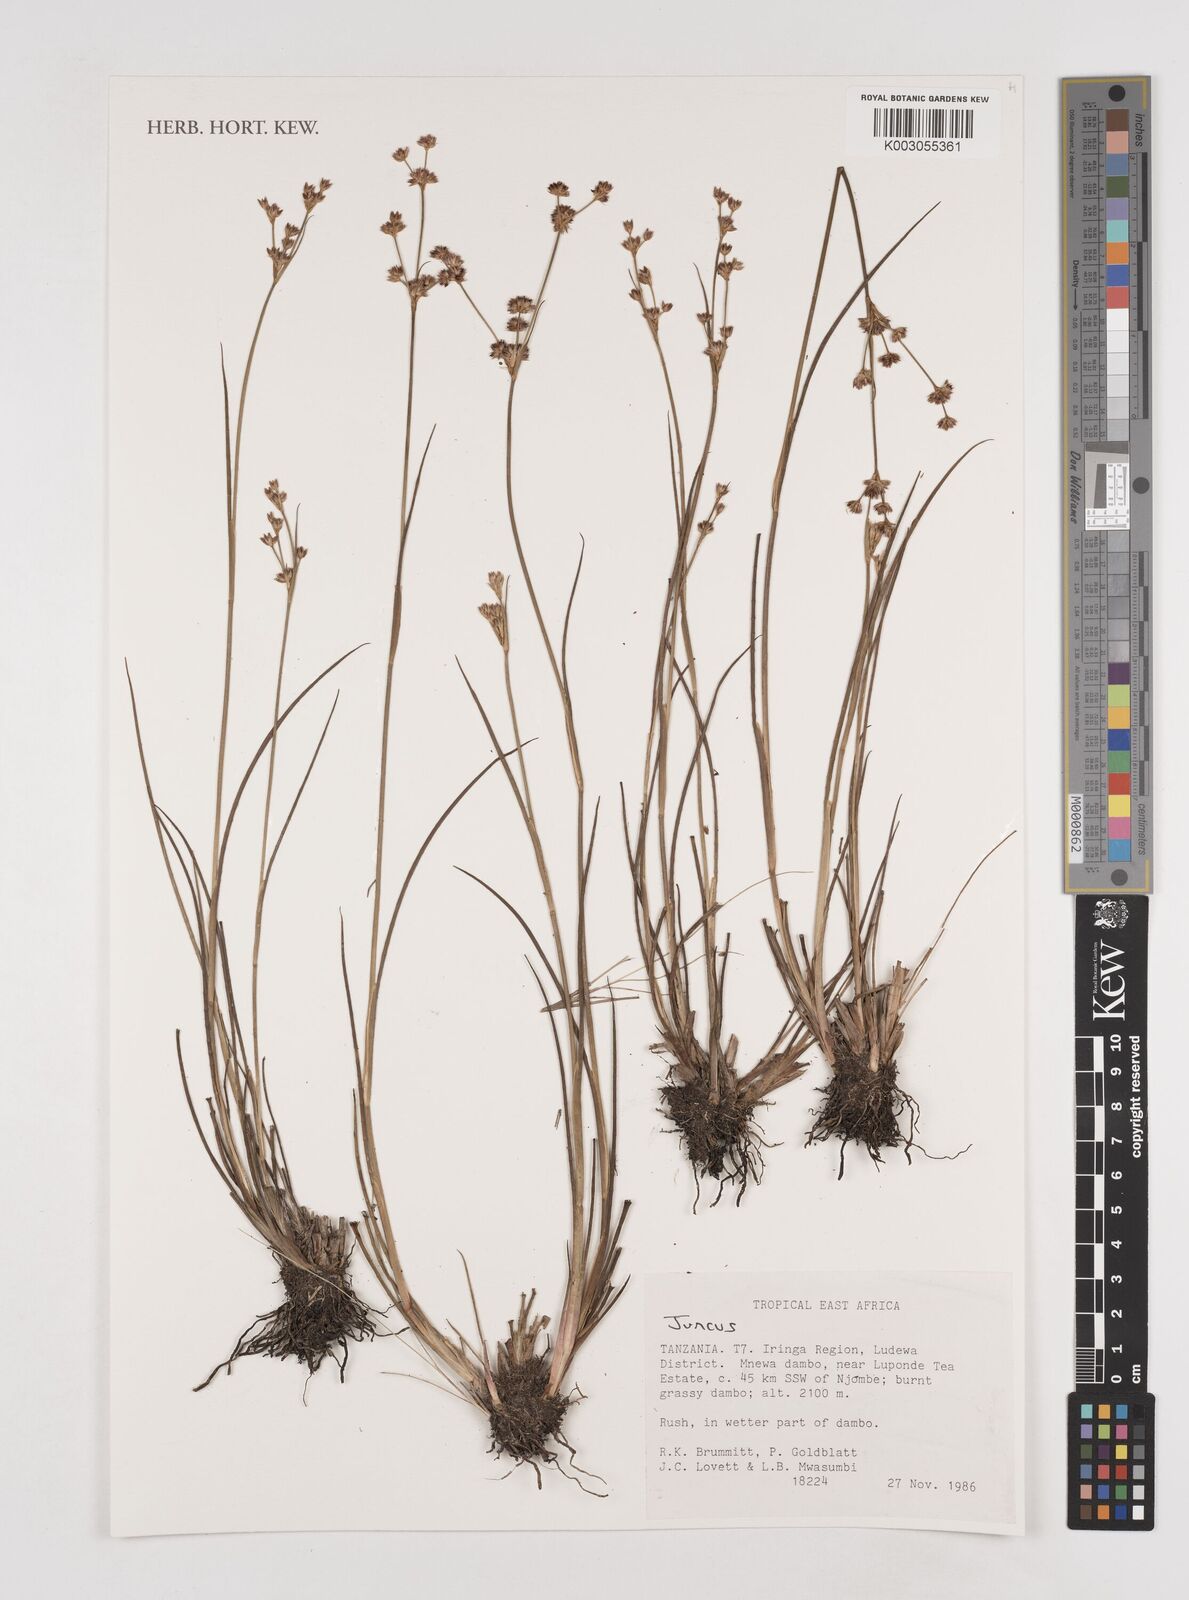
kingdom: Plantae
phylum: Tracheophyta
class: Liliopsida
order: Poales
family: Juncaceae
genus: Juncus
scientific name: Juncus
